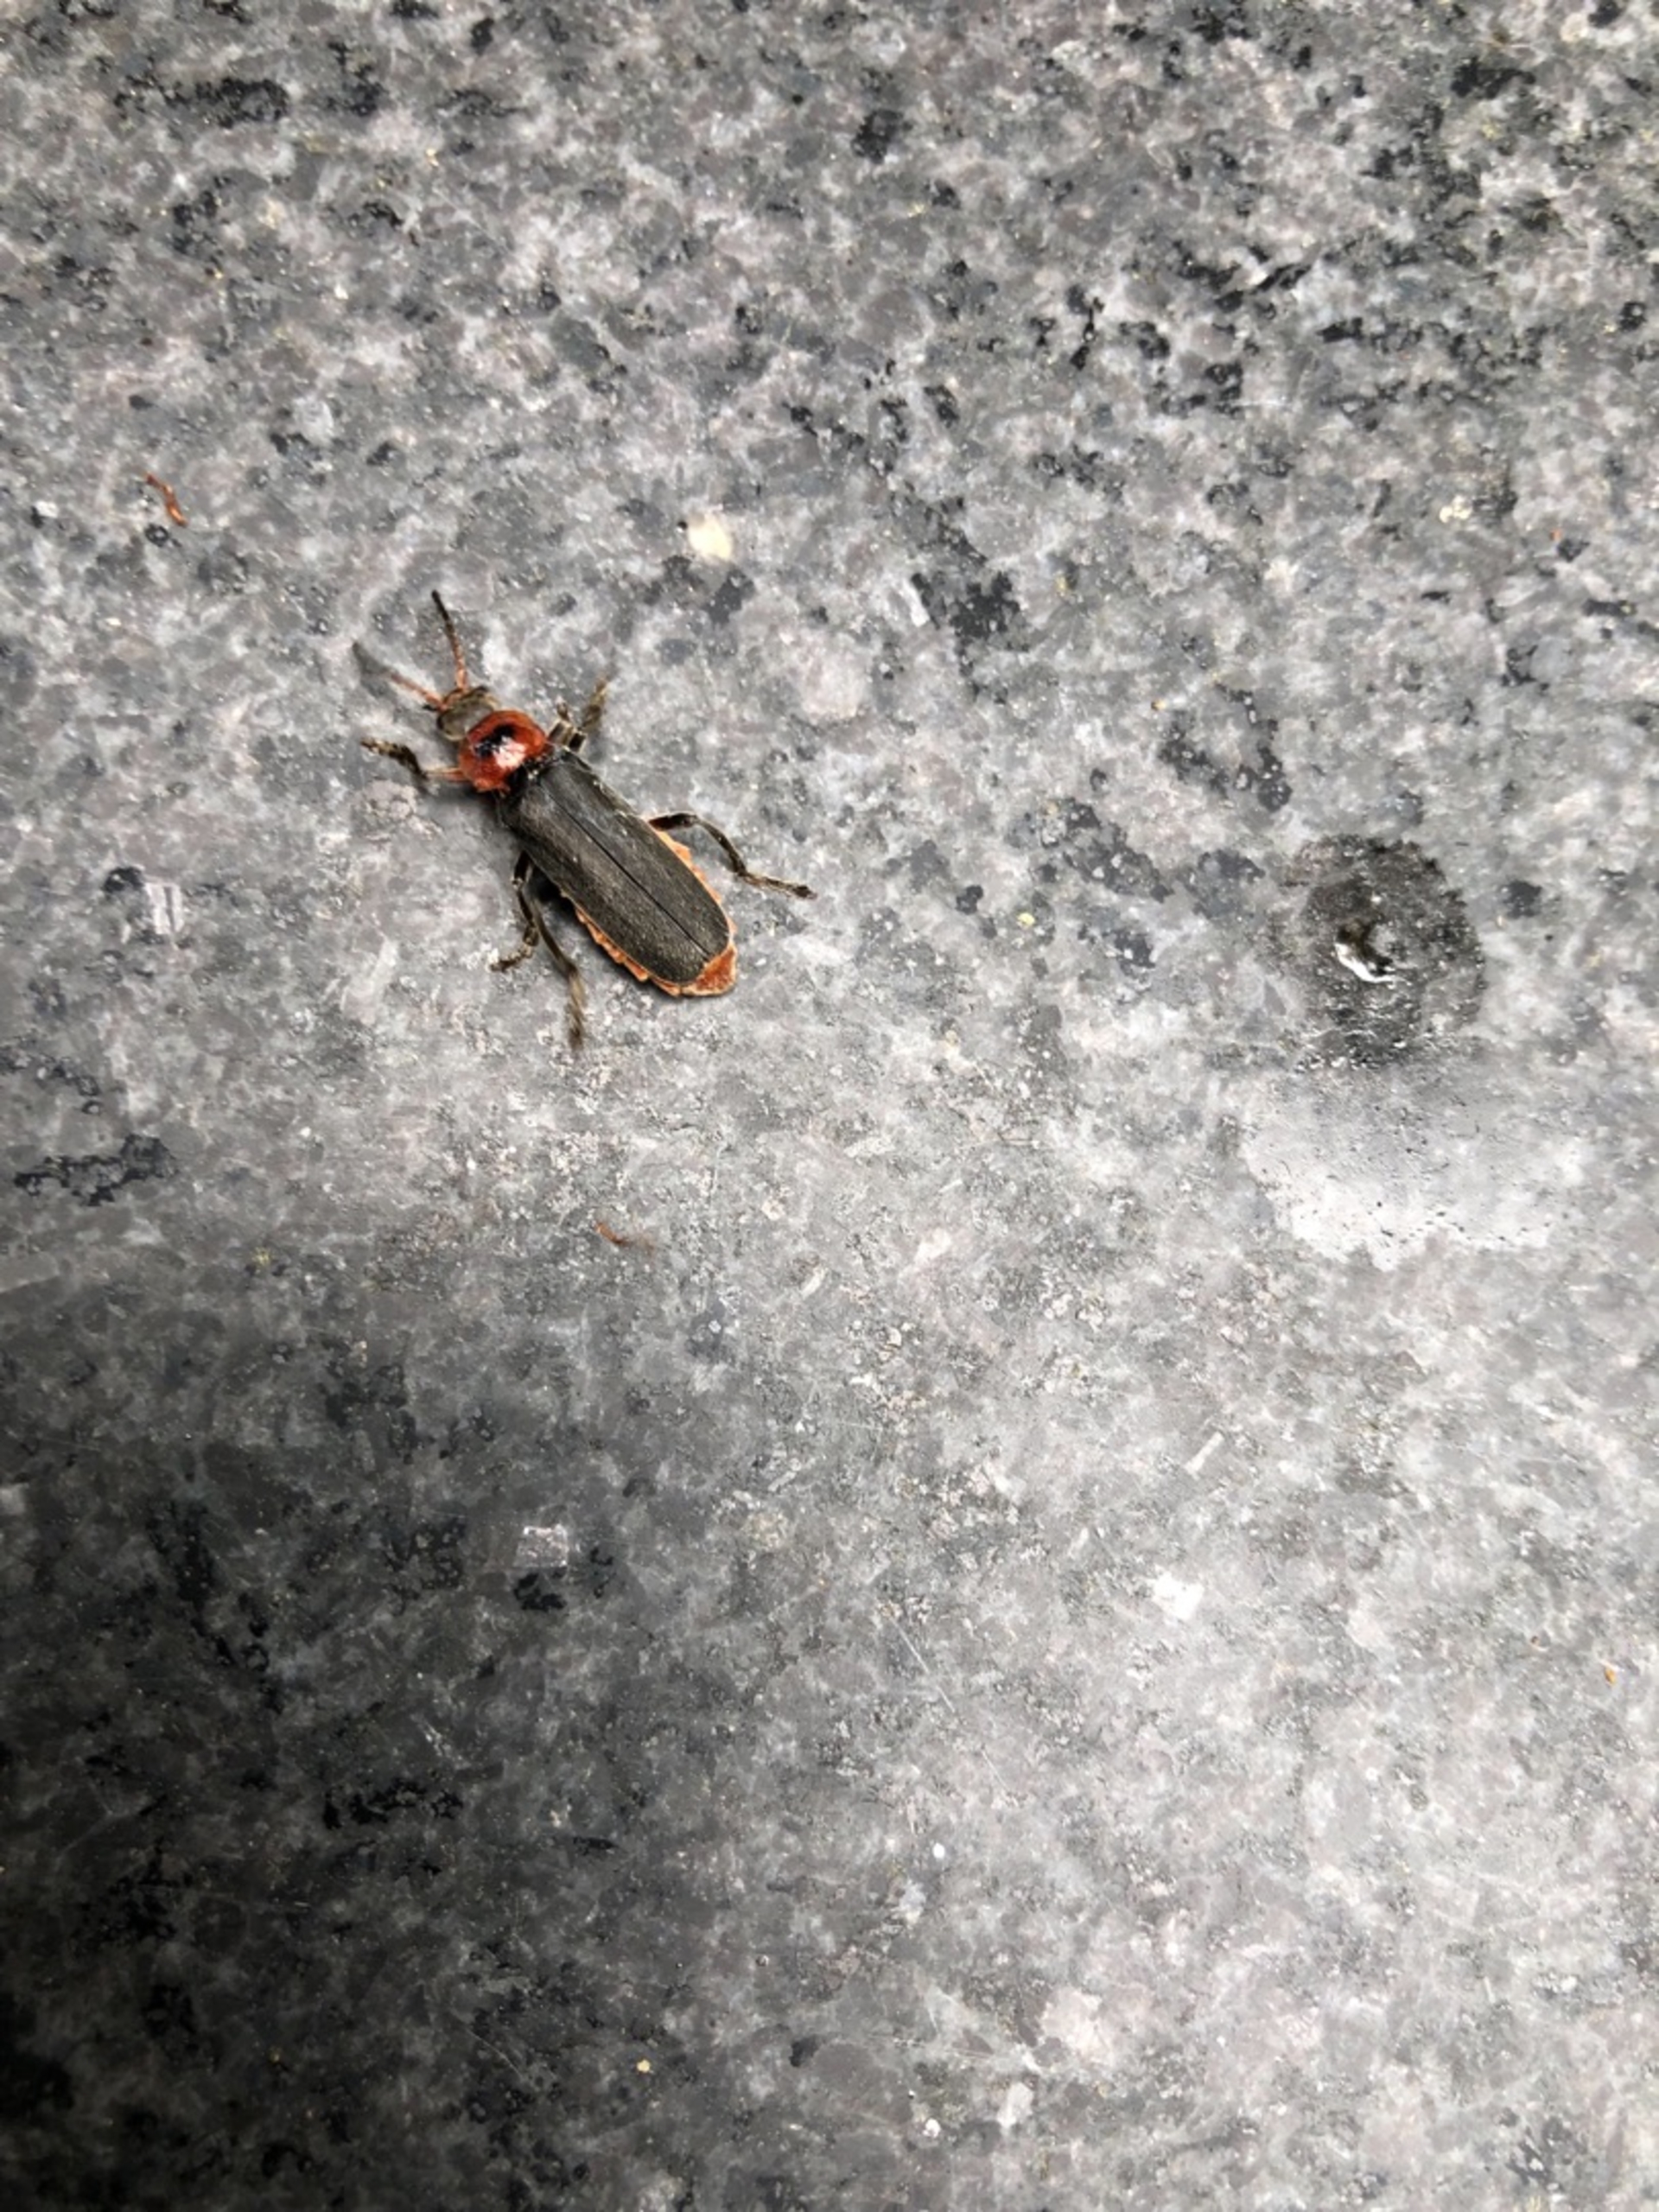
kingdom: Animalia
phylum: Arthropoda
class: Insecta
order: Coleoptera
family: Cantharidae
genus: Cantharis
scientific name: Cantharis rustica
